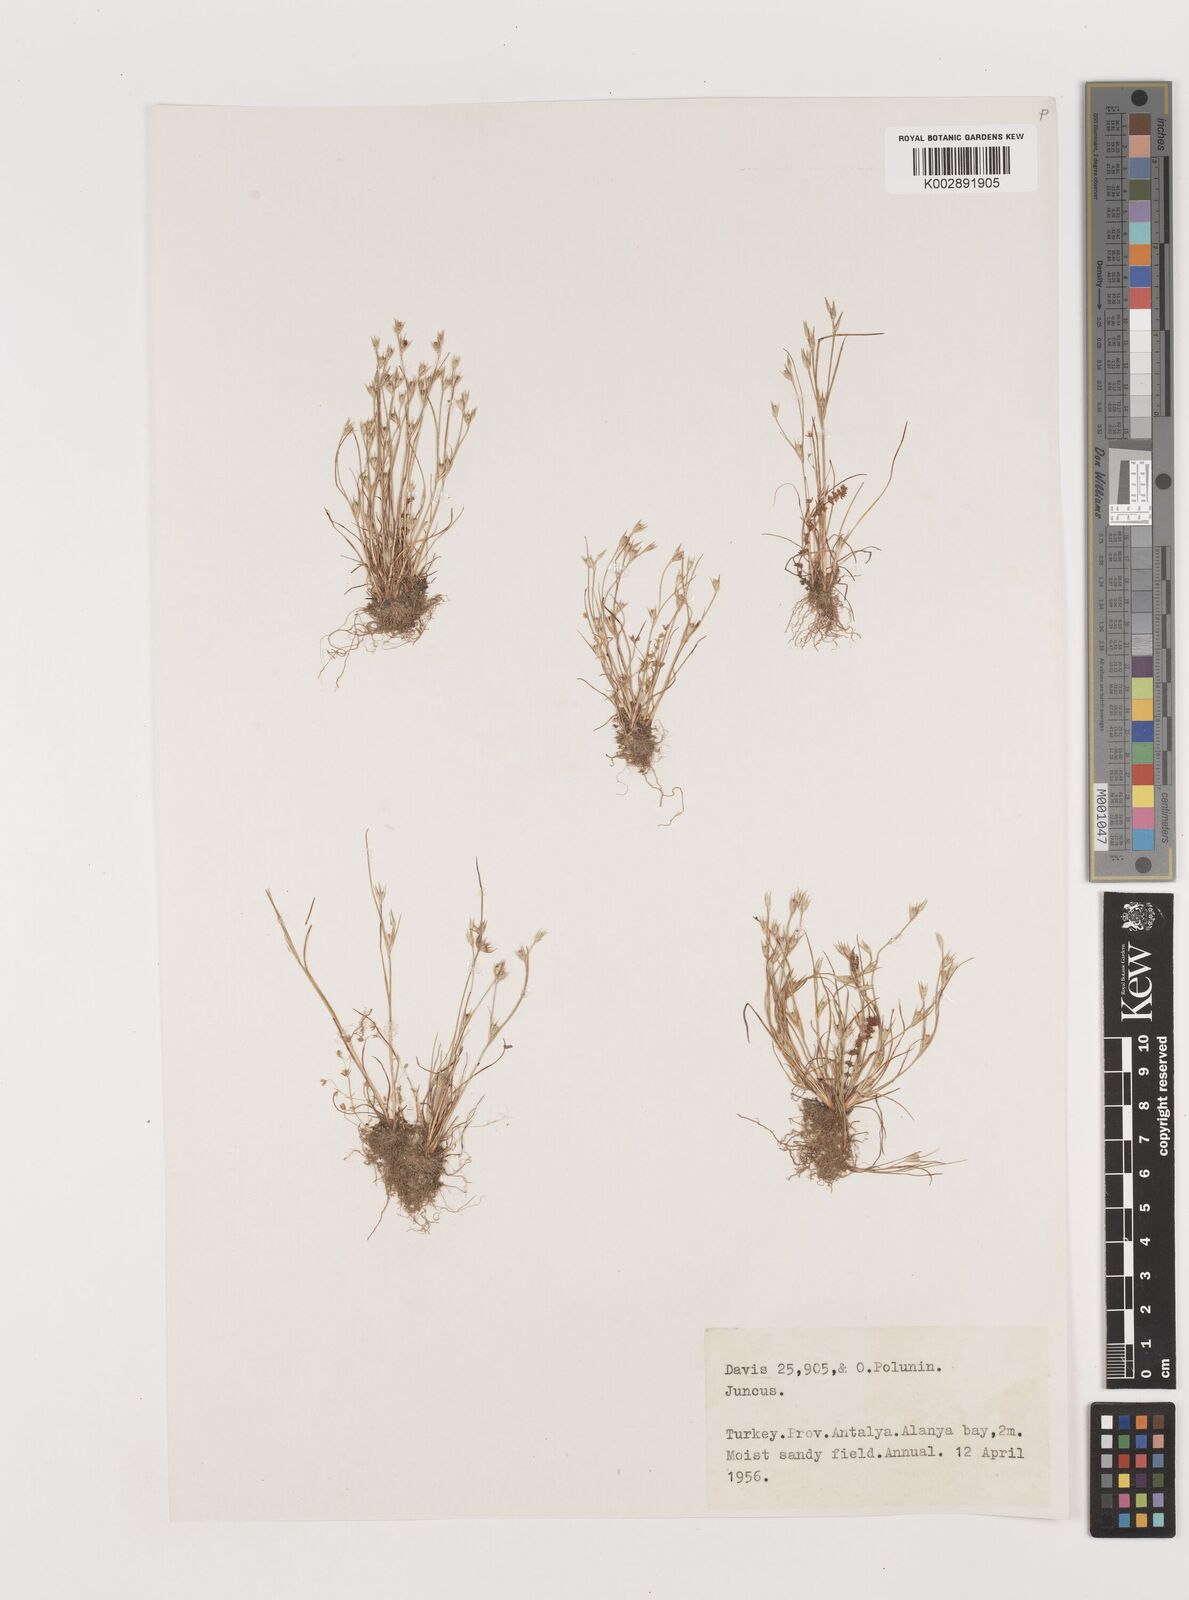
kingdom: Plantae
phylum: Tracheophyta
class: Liliopsida
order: Poales
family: Juncaceae
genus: Juncus
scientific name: Juncus
